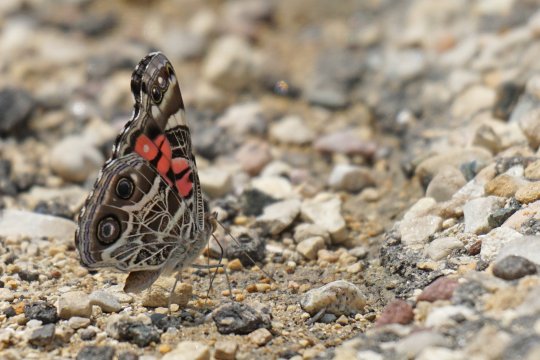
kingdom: Animalia
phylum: Arthropoda
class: Insecta
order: Lepidoptera
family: Nymphalidae
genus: Vanessa
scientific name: Vanessa virginiensis
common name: American Lady
